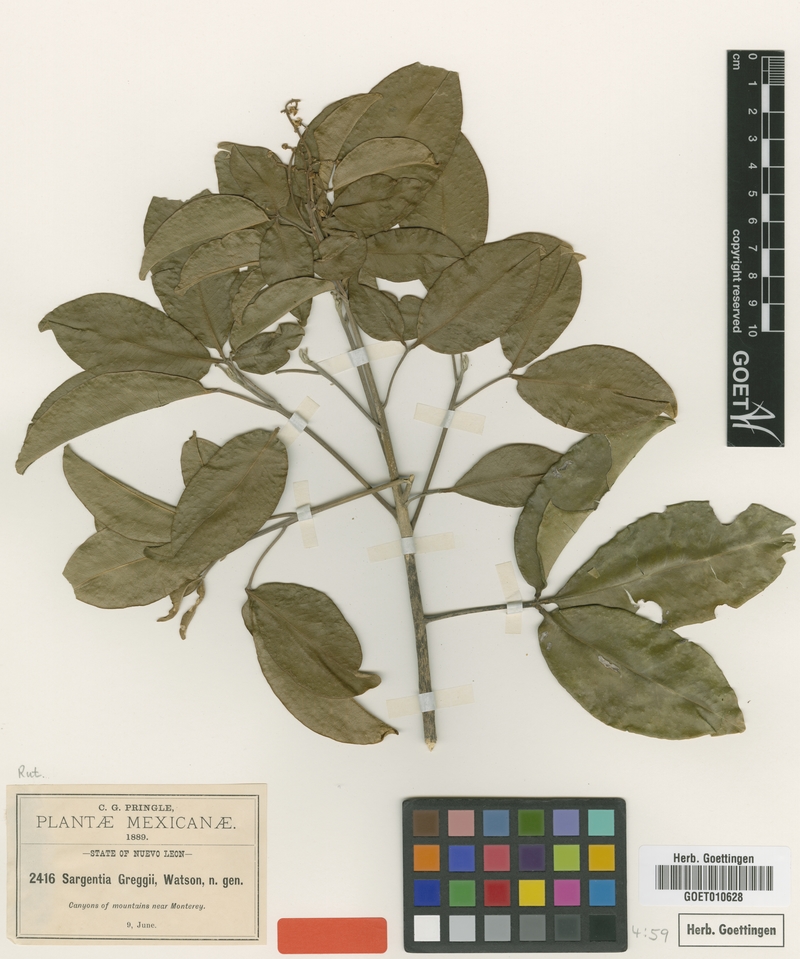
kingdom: Plantae
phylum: Tracheophyta
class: Magnoliopsida
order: Sapindales
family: Rutaceae
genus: Casimiroa
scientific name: Casimiroa greggii
